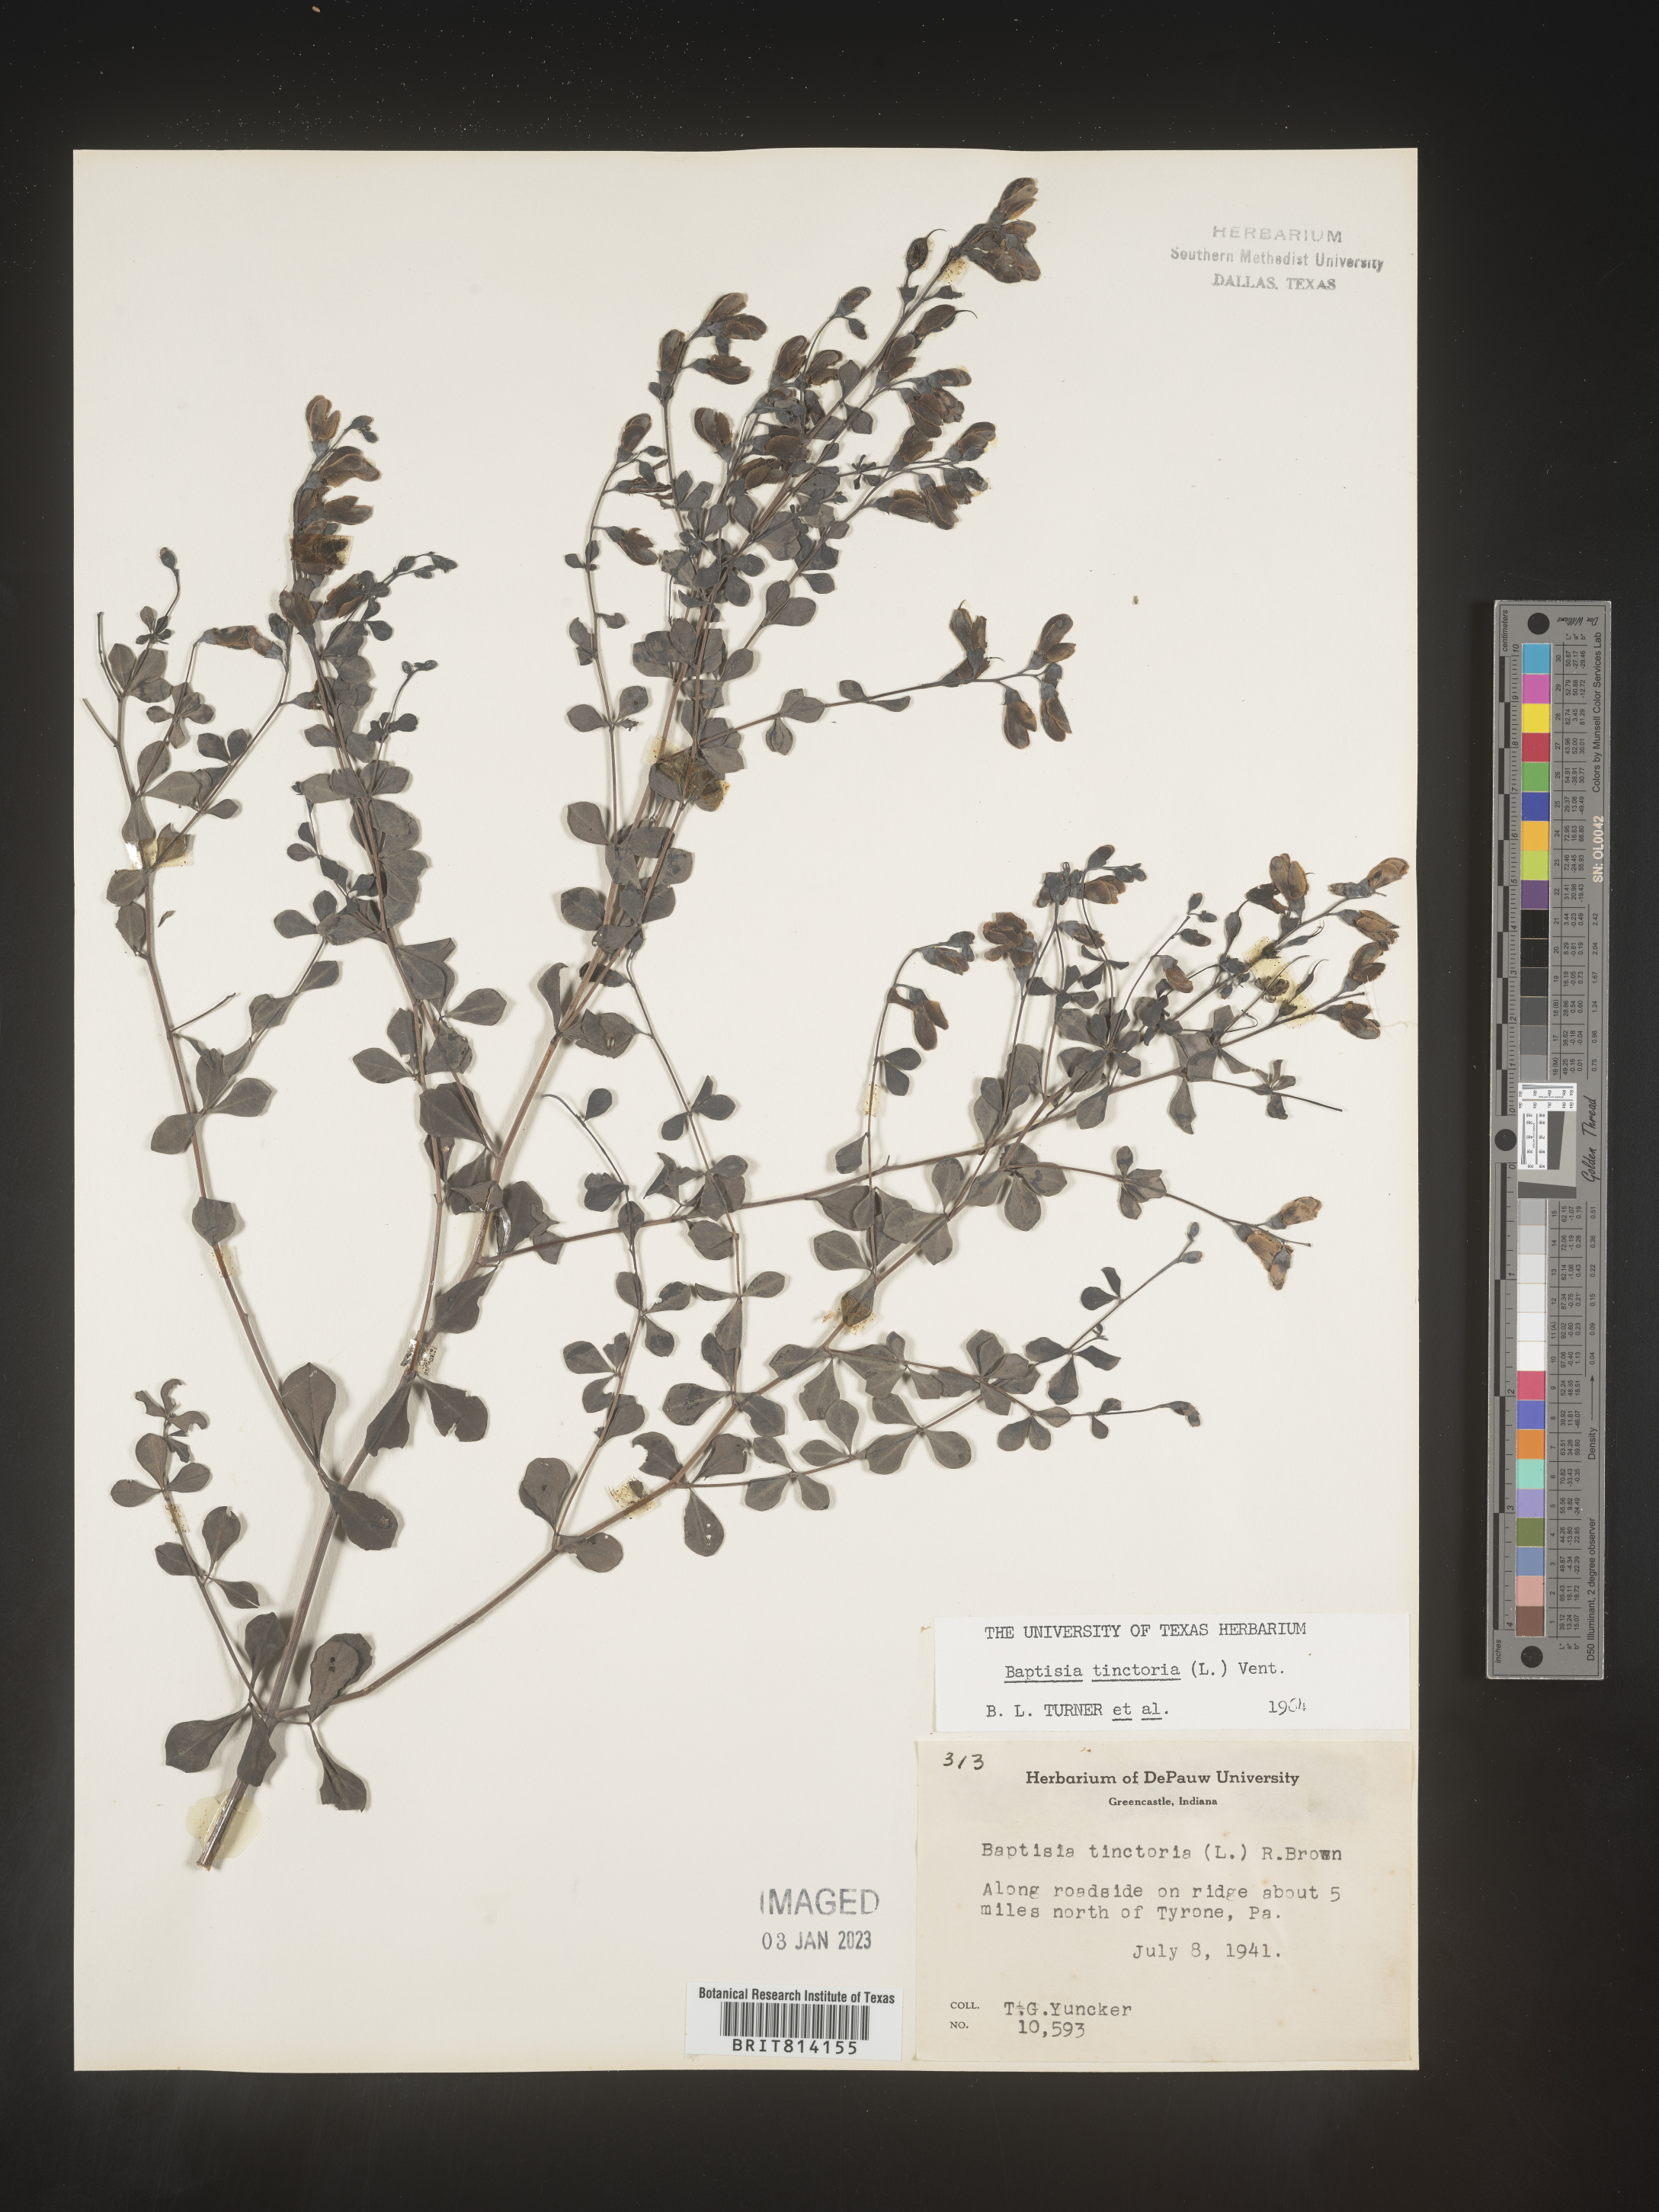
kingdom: Plantae
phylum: Tracheophyta
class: Magnoliopsida
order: Fabales
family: Fabaceae
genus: Baptisia
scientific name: Baptisia tinctoria
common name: Wild indigo
